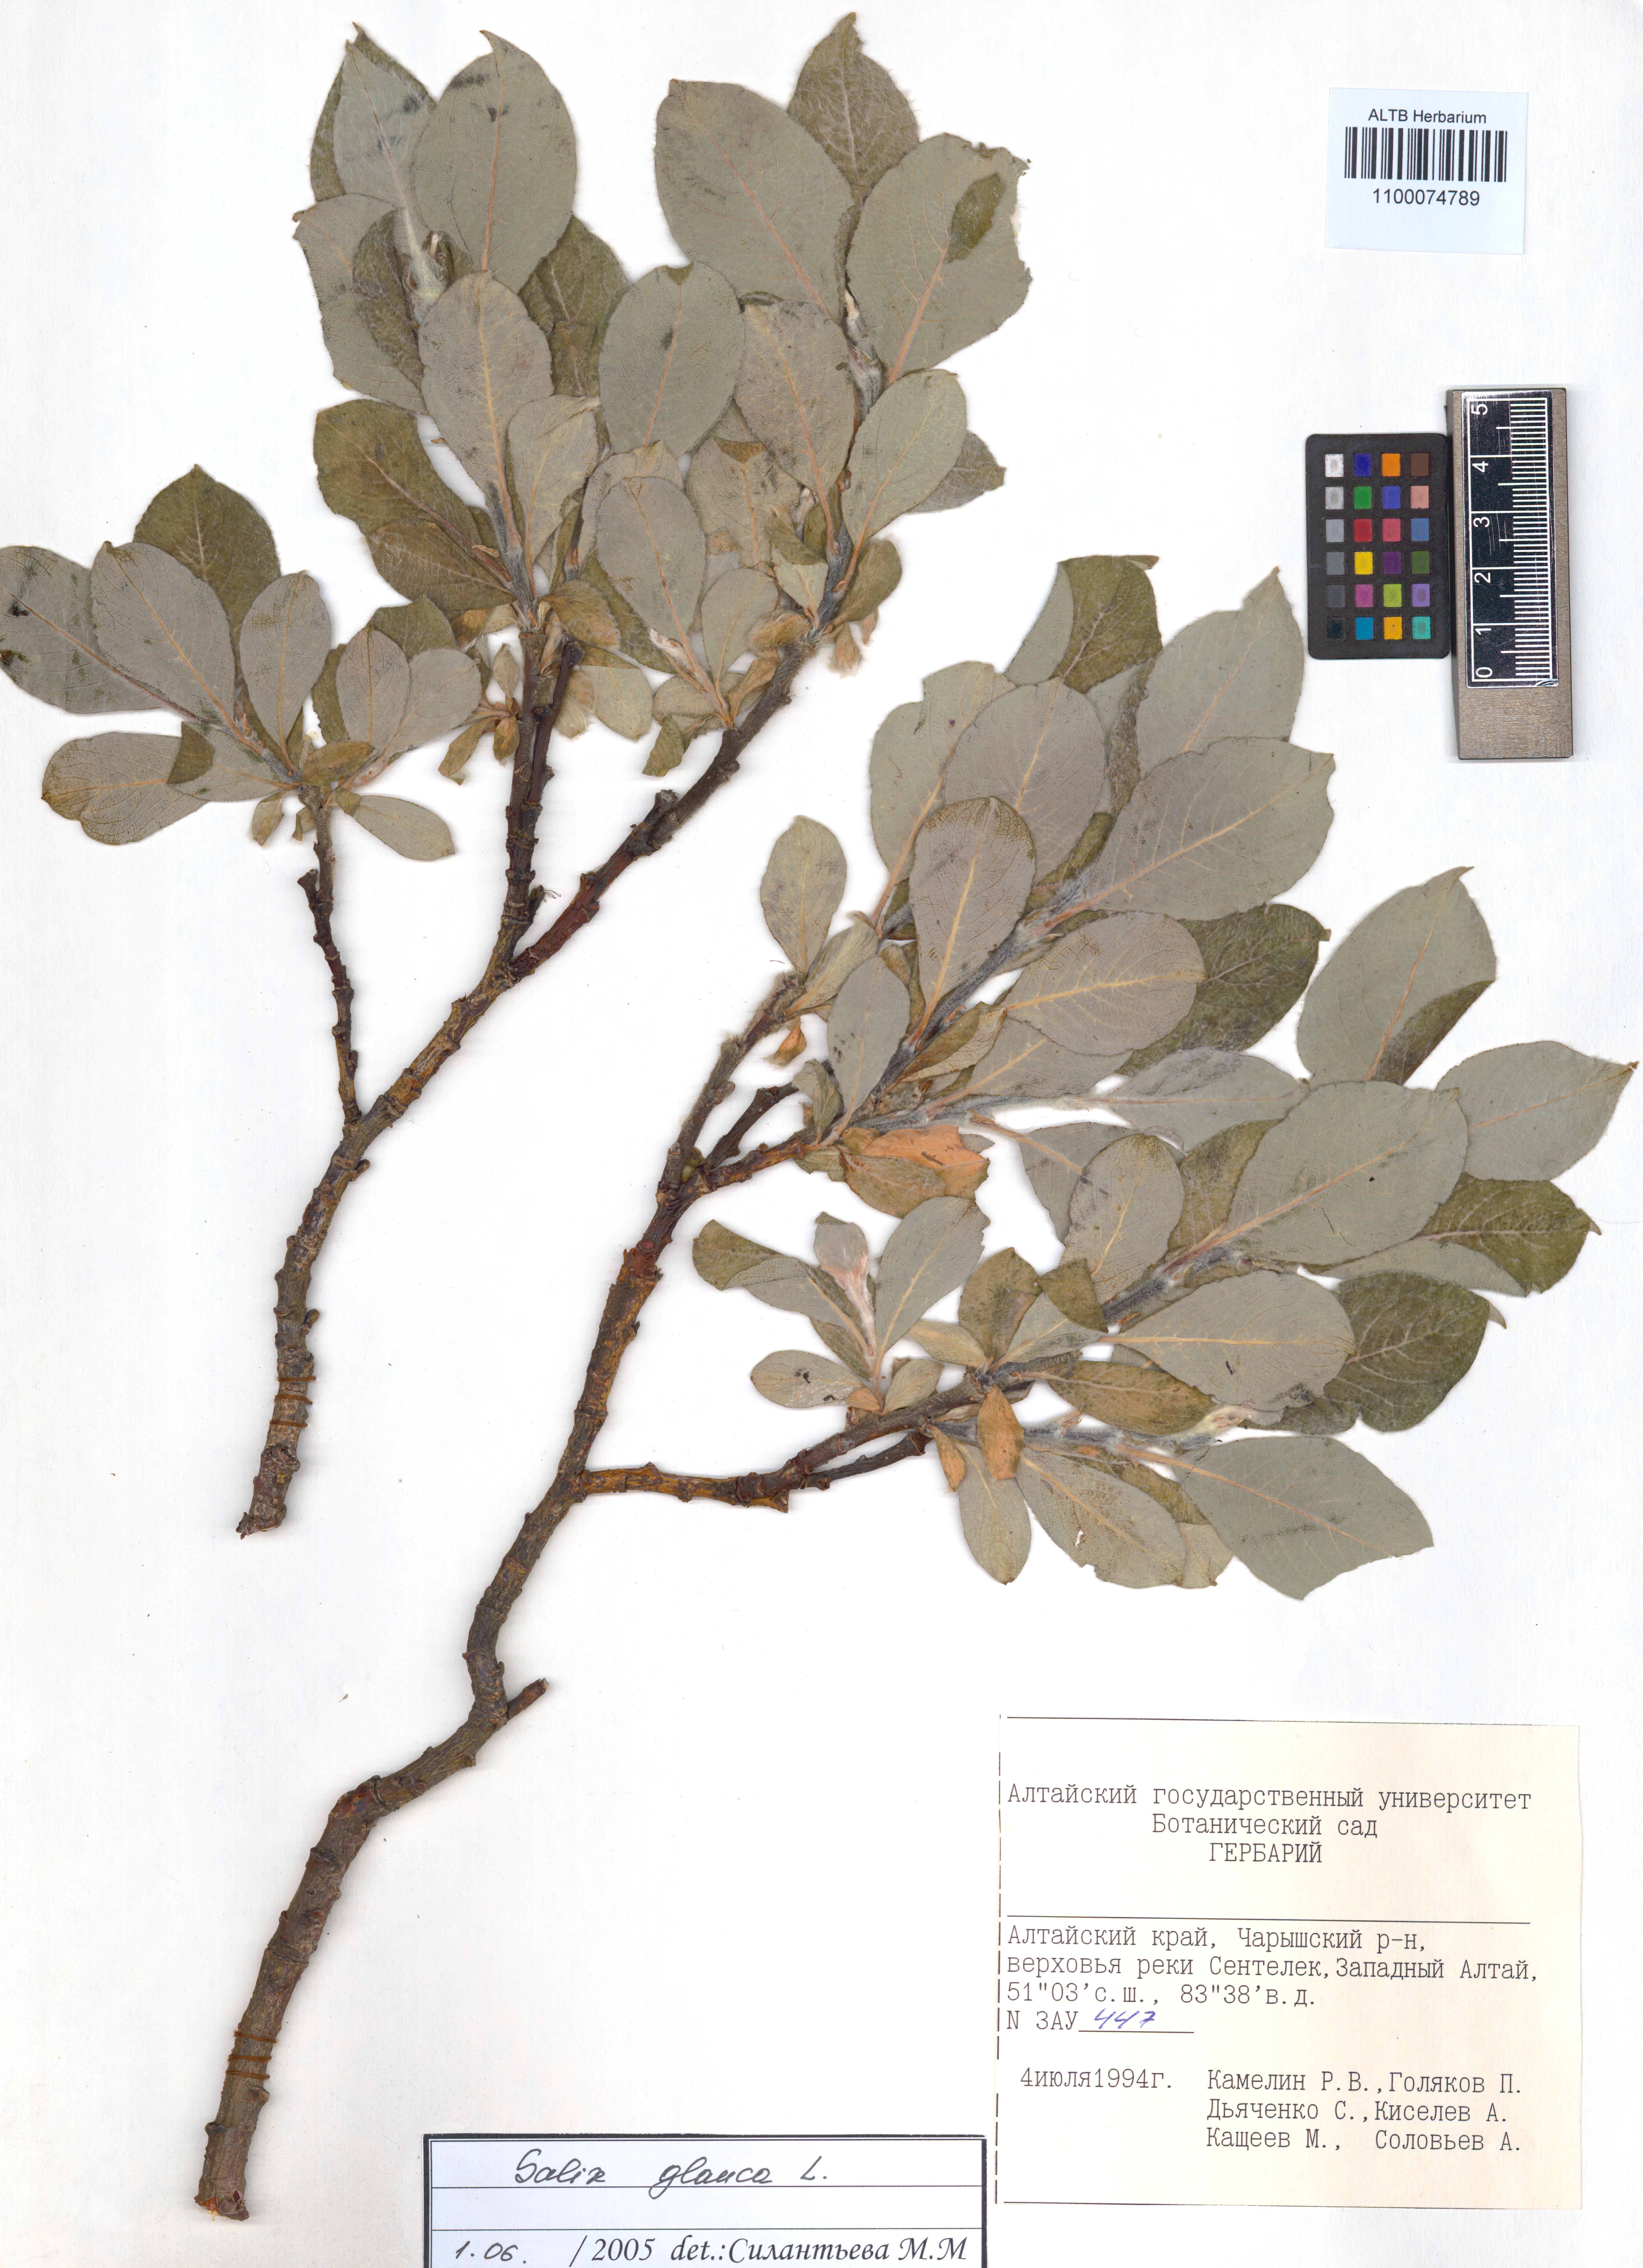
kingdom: Plantae
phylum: Tracheophyta
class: Magnoliopsida
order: Malpighiales
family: Salicaceae
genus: Salix
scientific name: Salix glauca
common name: Glaucous willow
